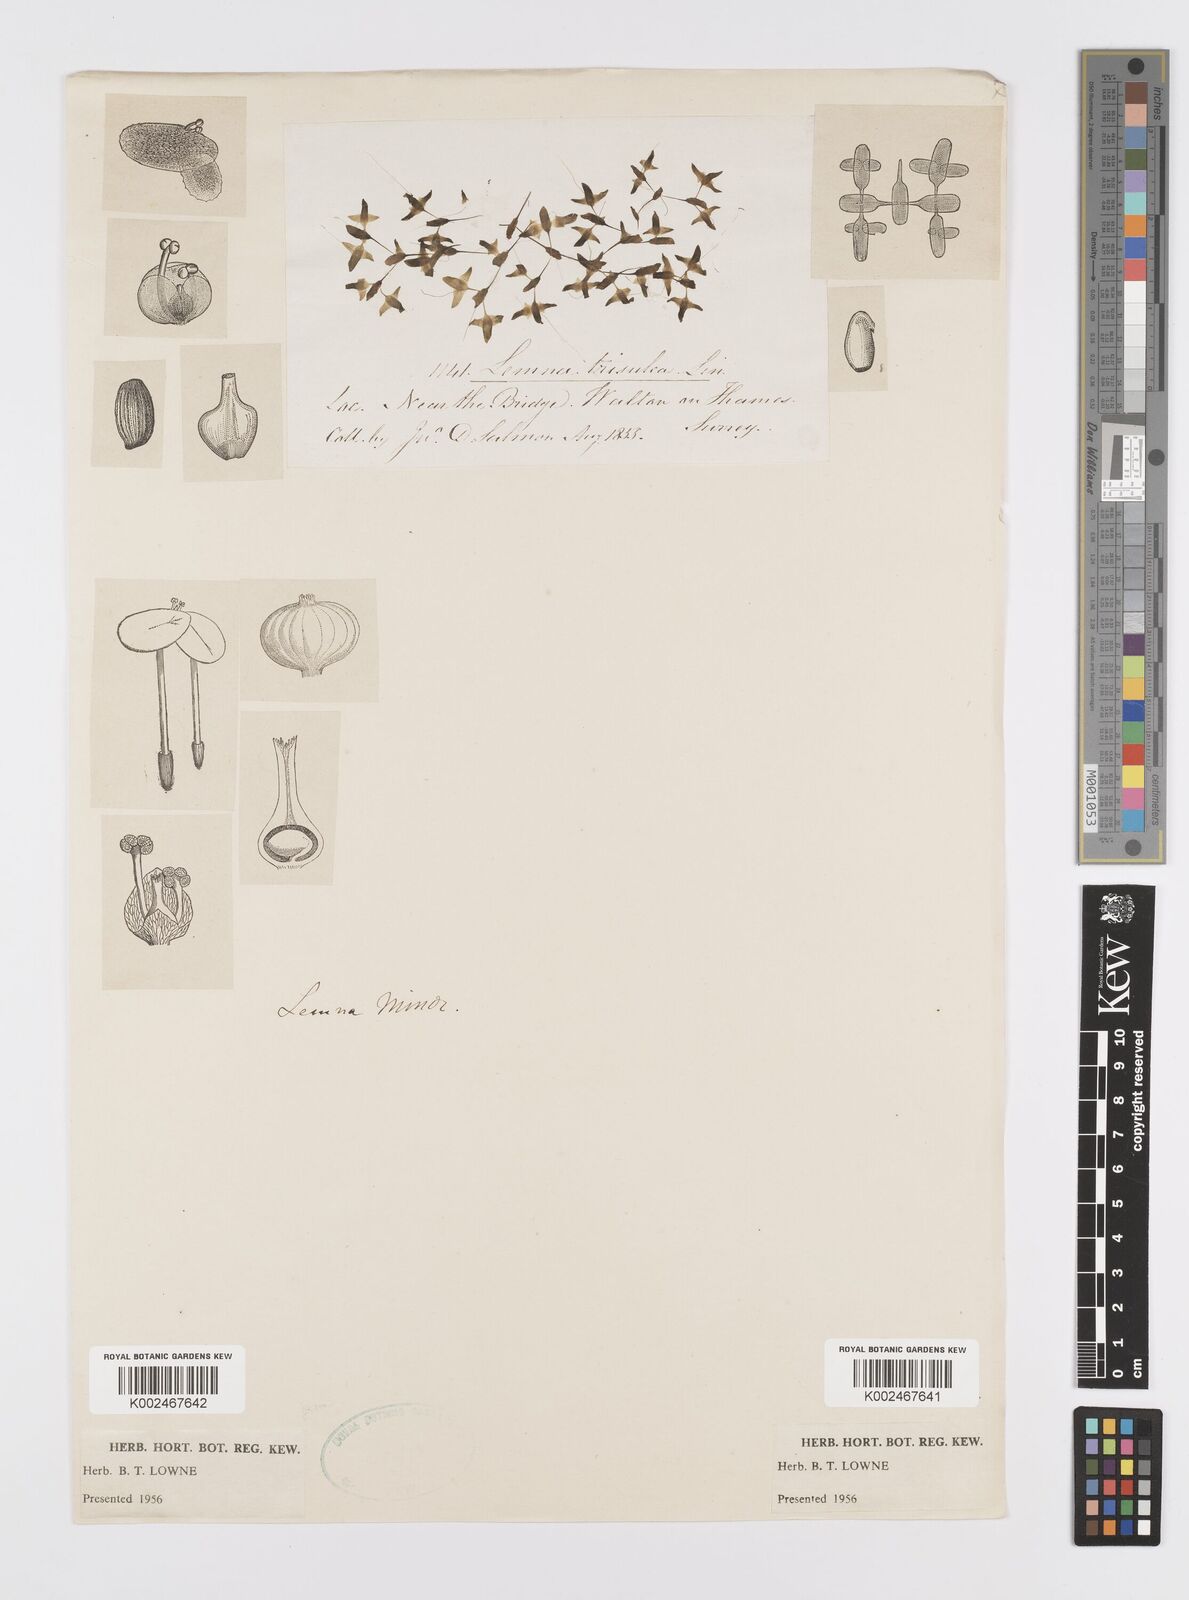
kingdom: Plantae
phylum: Tracheophyta
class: Liliopsida
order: Alismatales
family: Araceae
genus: Lemna
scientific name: Lemna trisulca
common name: Ivy-leaved duckweed
